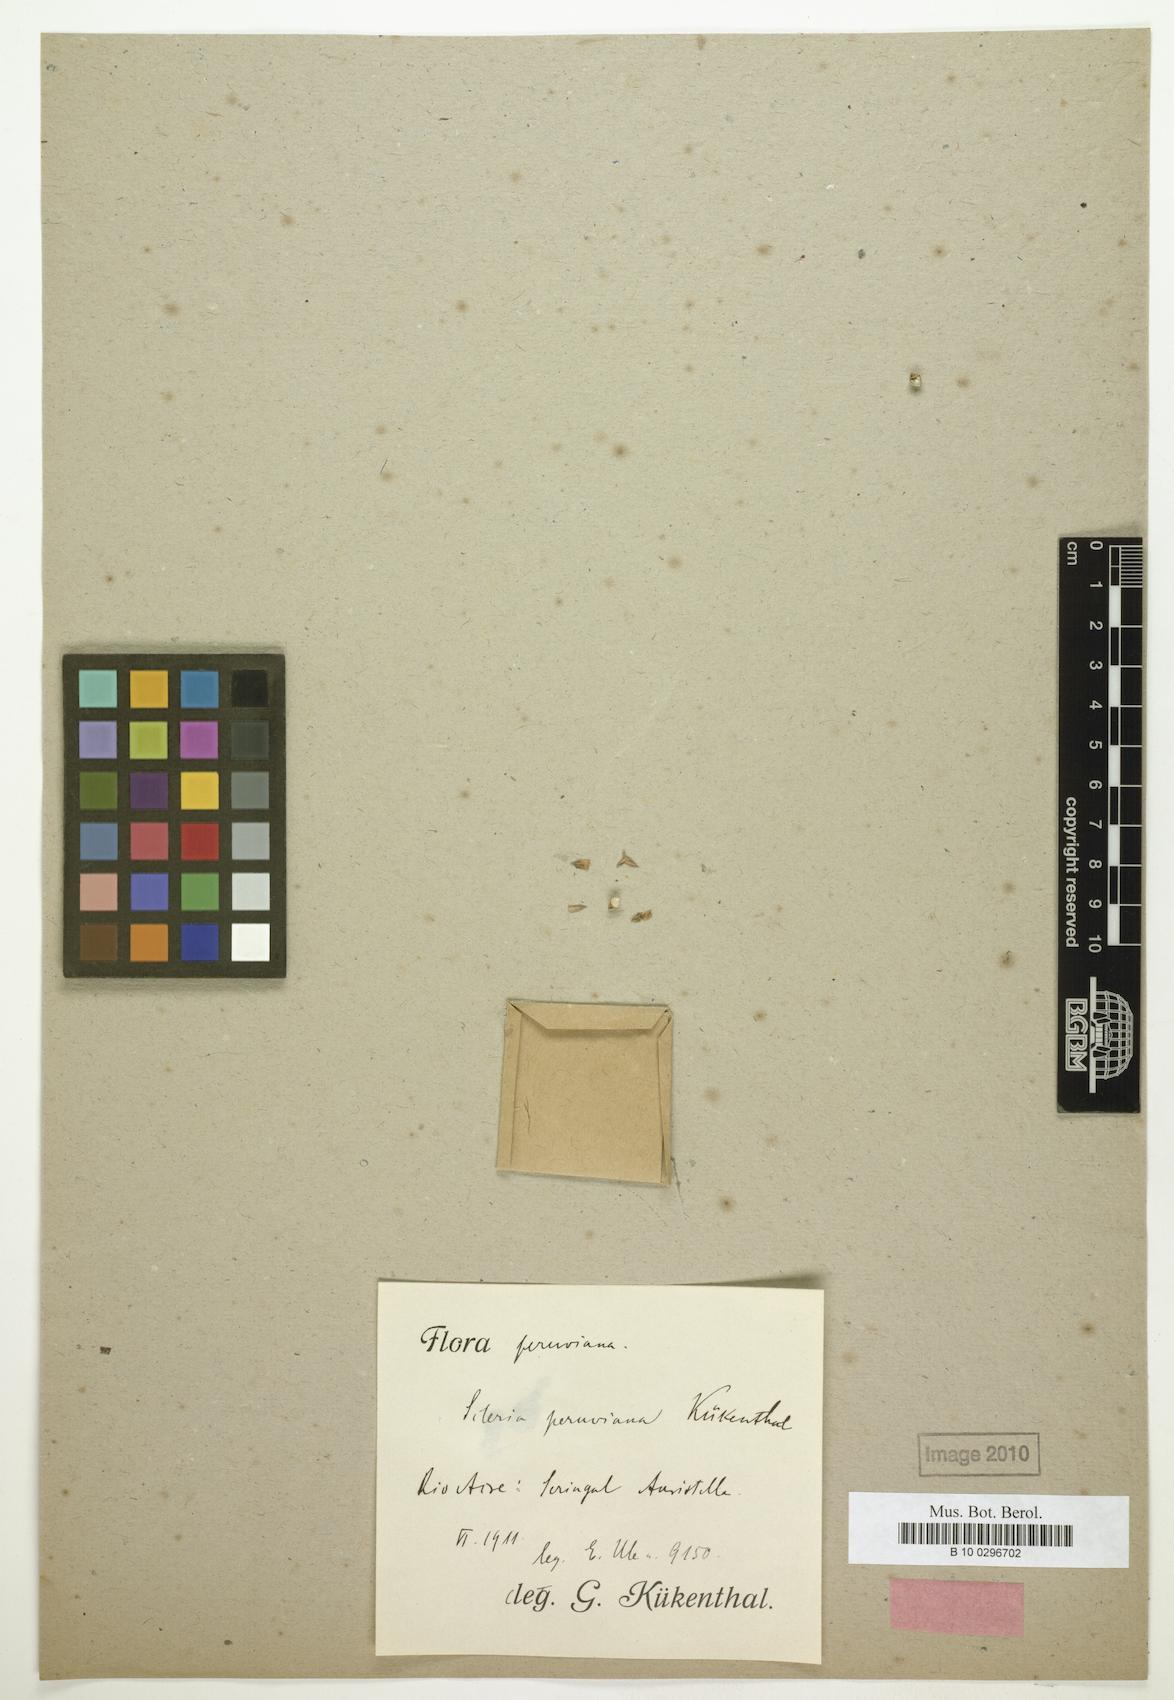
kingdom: Plantae
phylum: Tracheophyta
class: Liliopsida
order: Poales
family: Cyperaceae
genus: Scleria
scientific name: Scleria huberi
